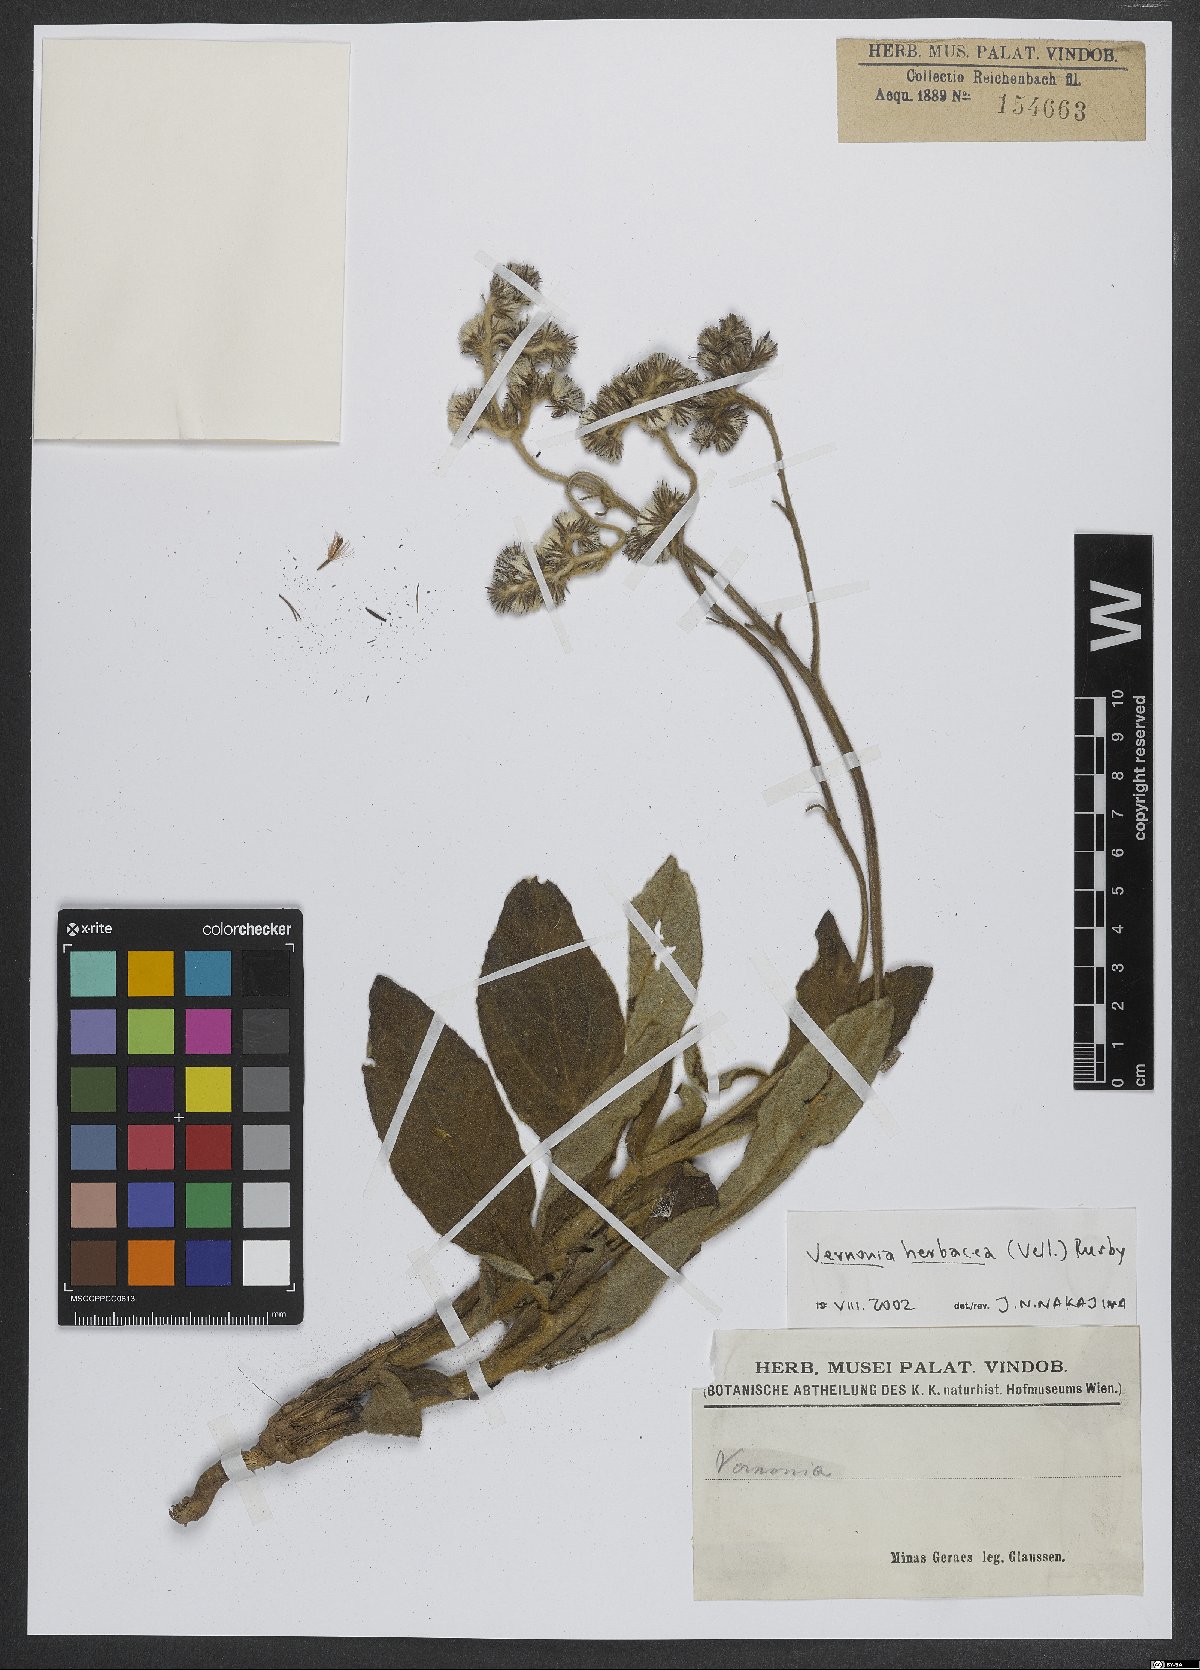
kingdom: Plantae
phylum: Tracheophyta
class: Magnoliopsida
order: Asterales
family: Asteraceae
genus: Chrysolaena
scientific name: Chrysolaena obovata
